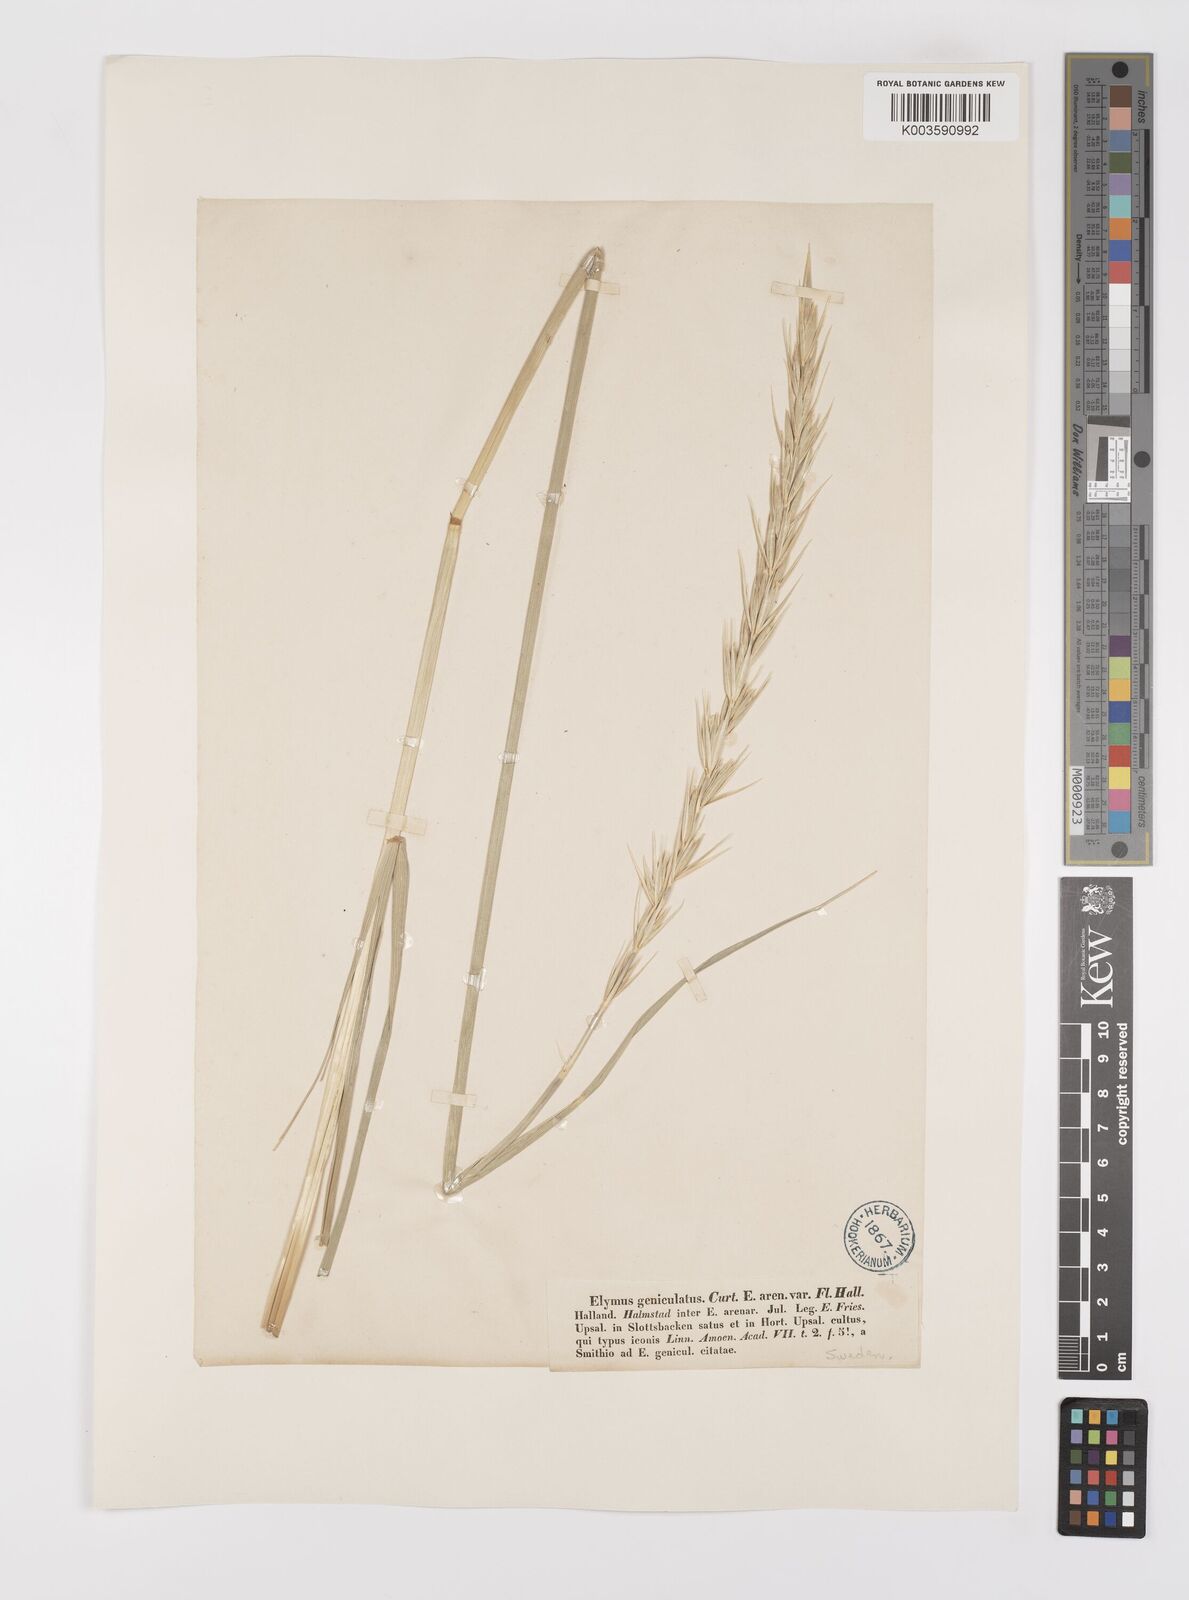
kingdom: Plantae
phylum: Tracheophyta
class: Liliopsida
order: Poales
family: Poaceae
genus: Leymus
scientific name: Leymus arenarius
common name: Lyme-grass
